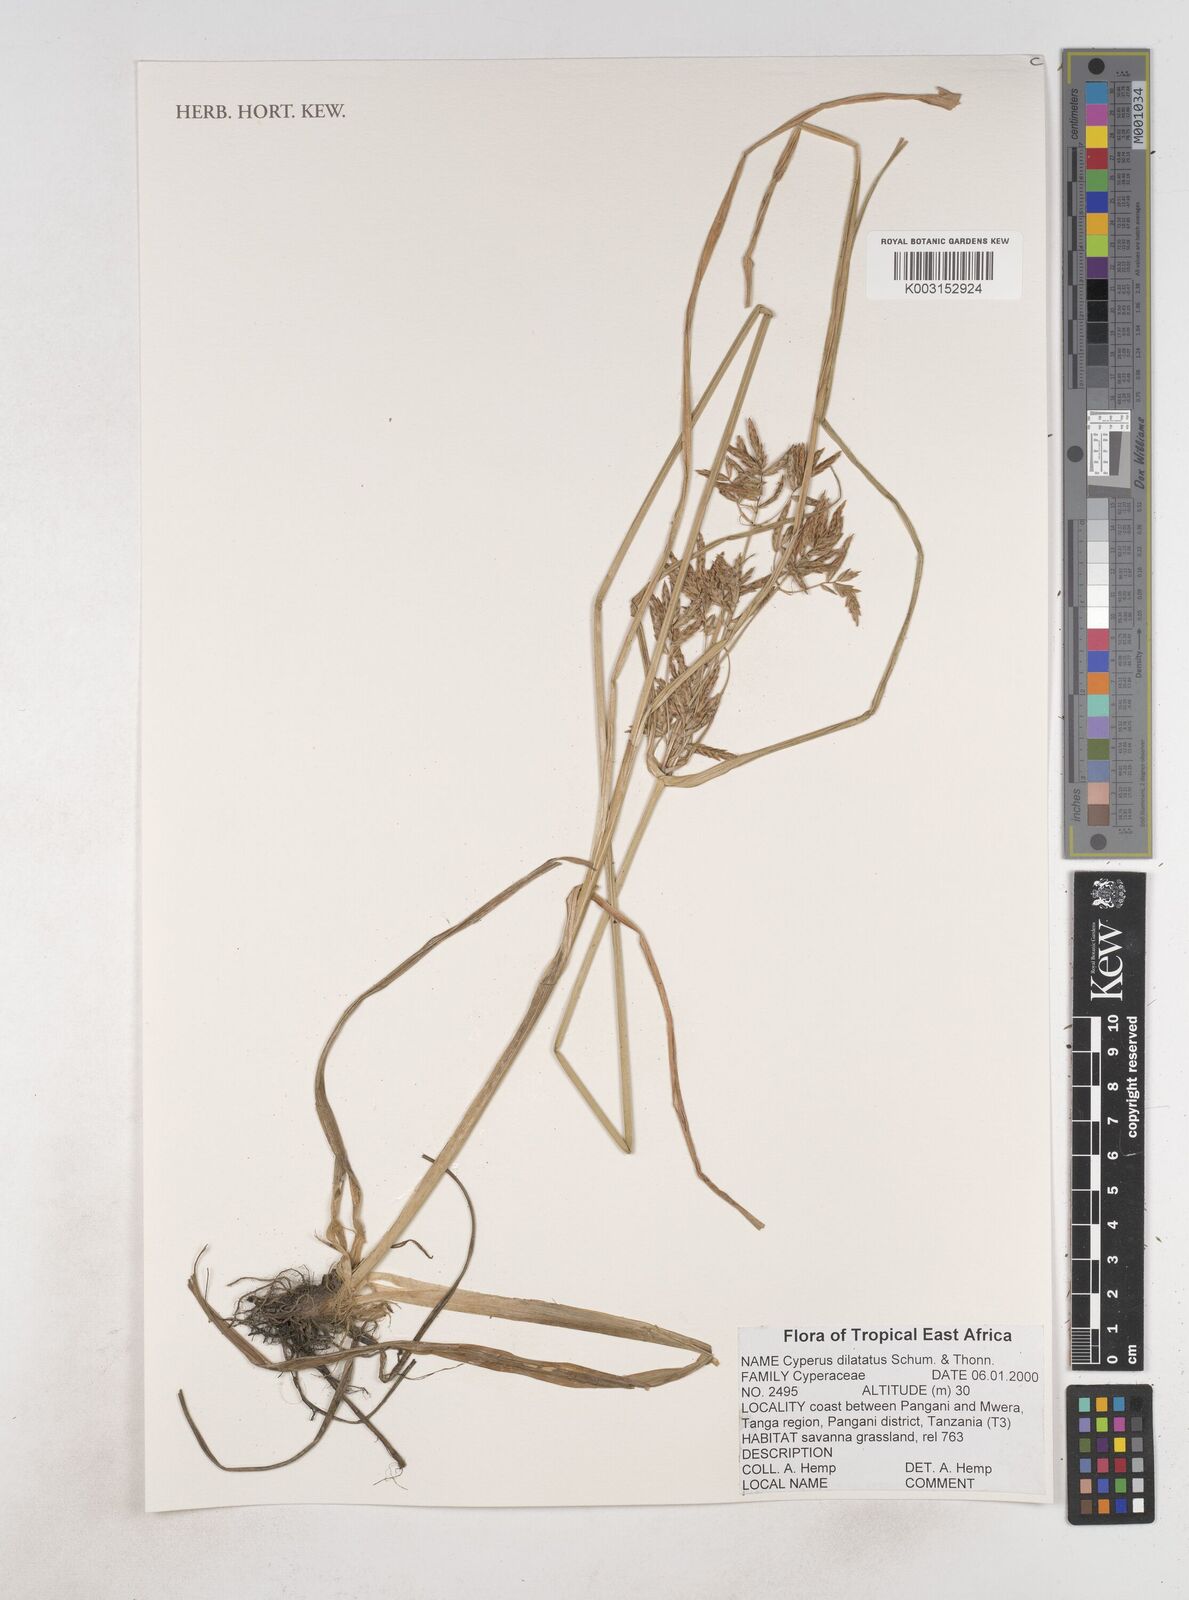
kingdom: Plantae
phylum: Tracheophyta
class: Liliopsida
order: Poales
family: Cyperaceae
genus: Cyperus
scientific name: Cyperus dilatatus
